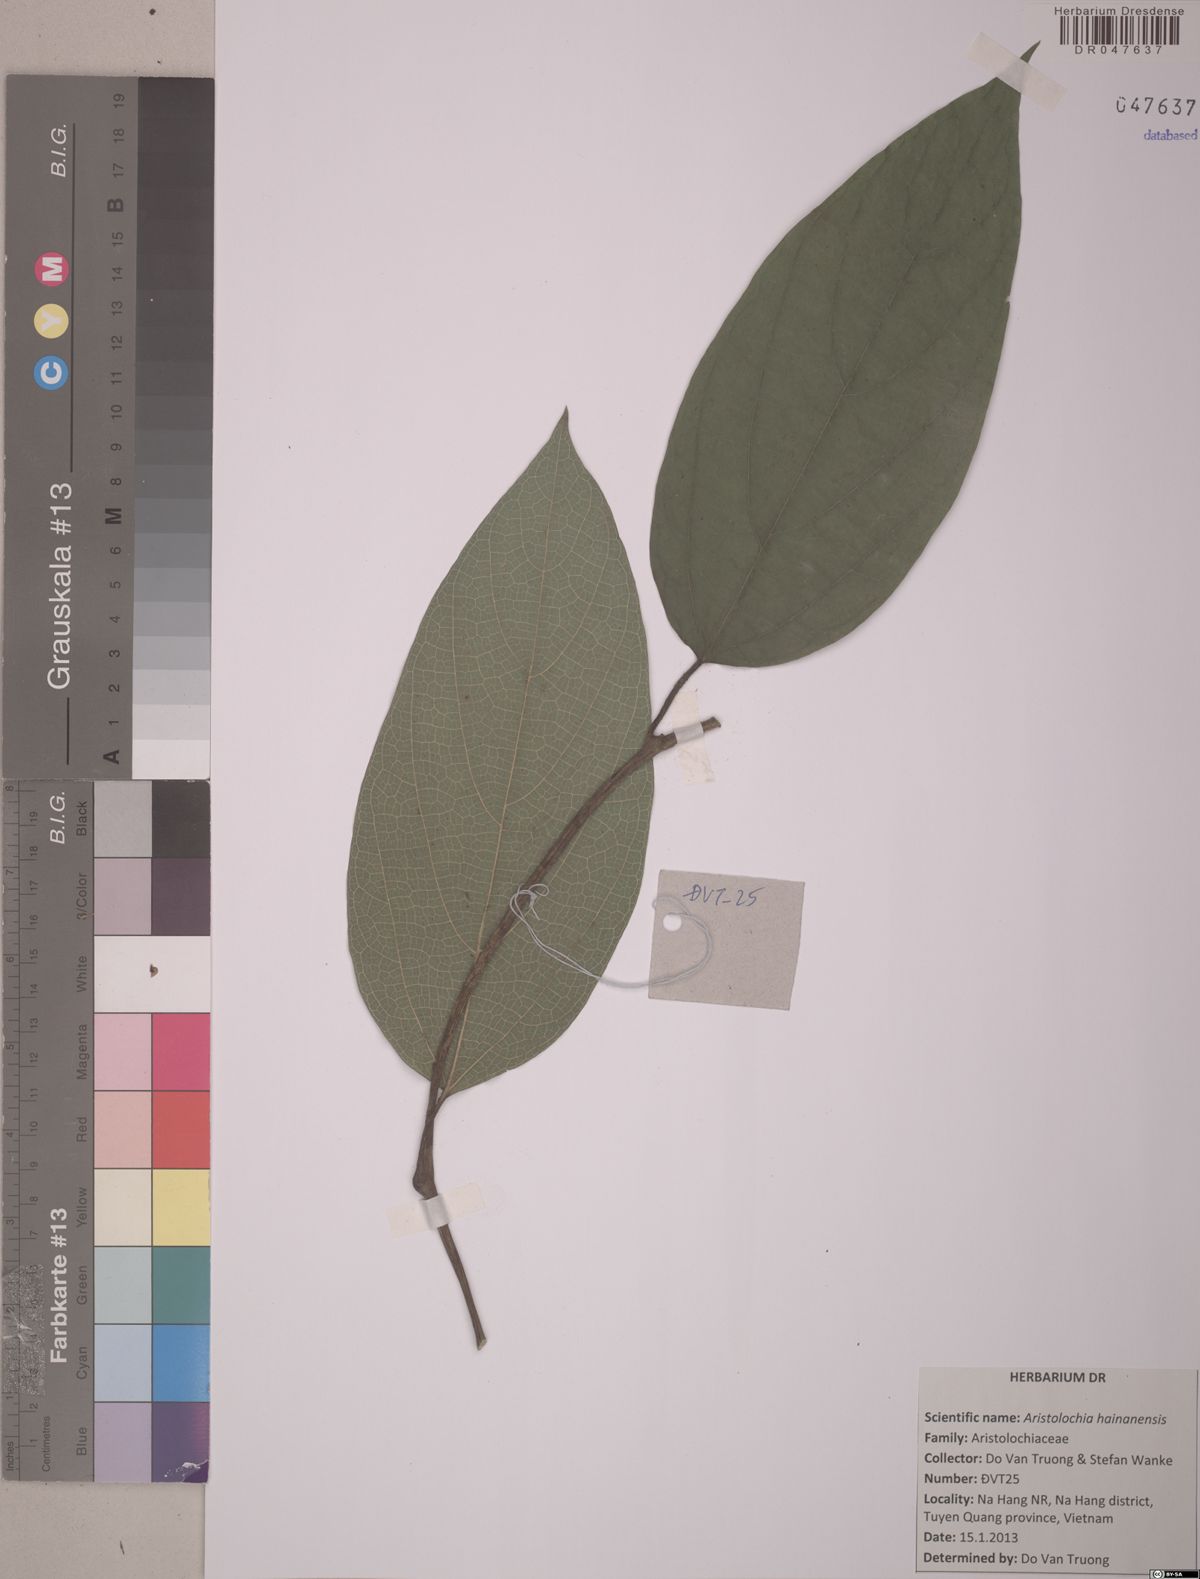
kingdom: Plantae
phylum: Tracheophyta
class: Magnoliopsida
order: Piperales
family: Aristolochiaceae
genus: Isotrema
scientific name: Isotrema hainanense
